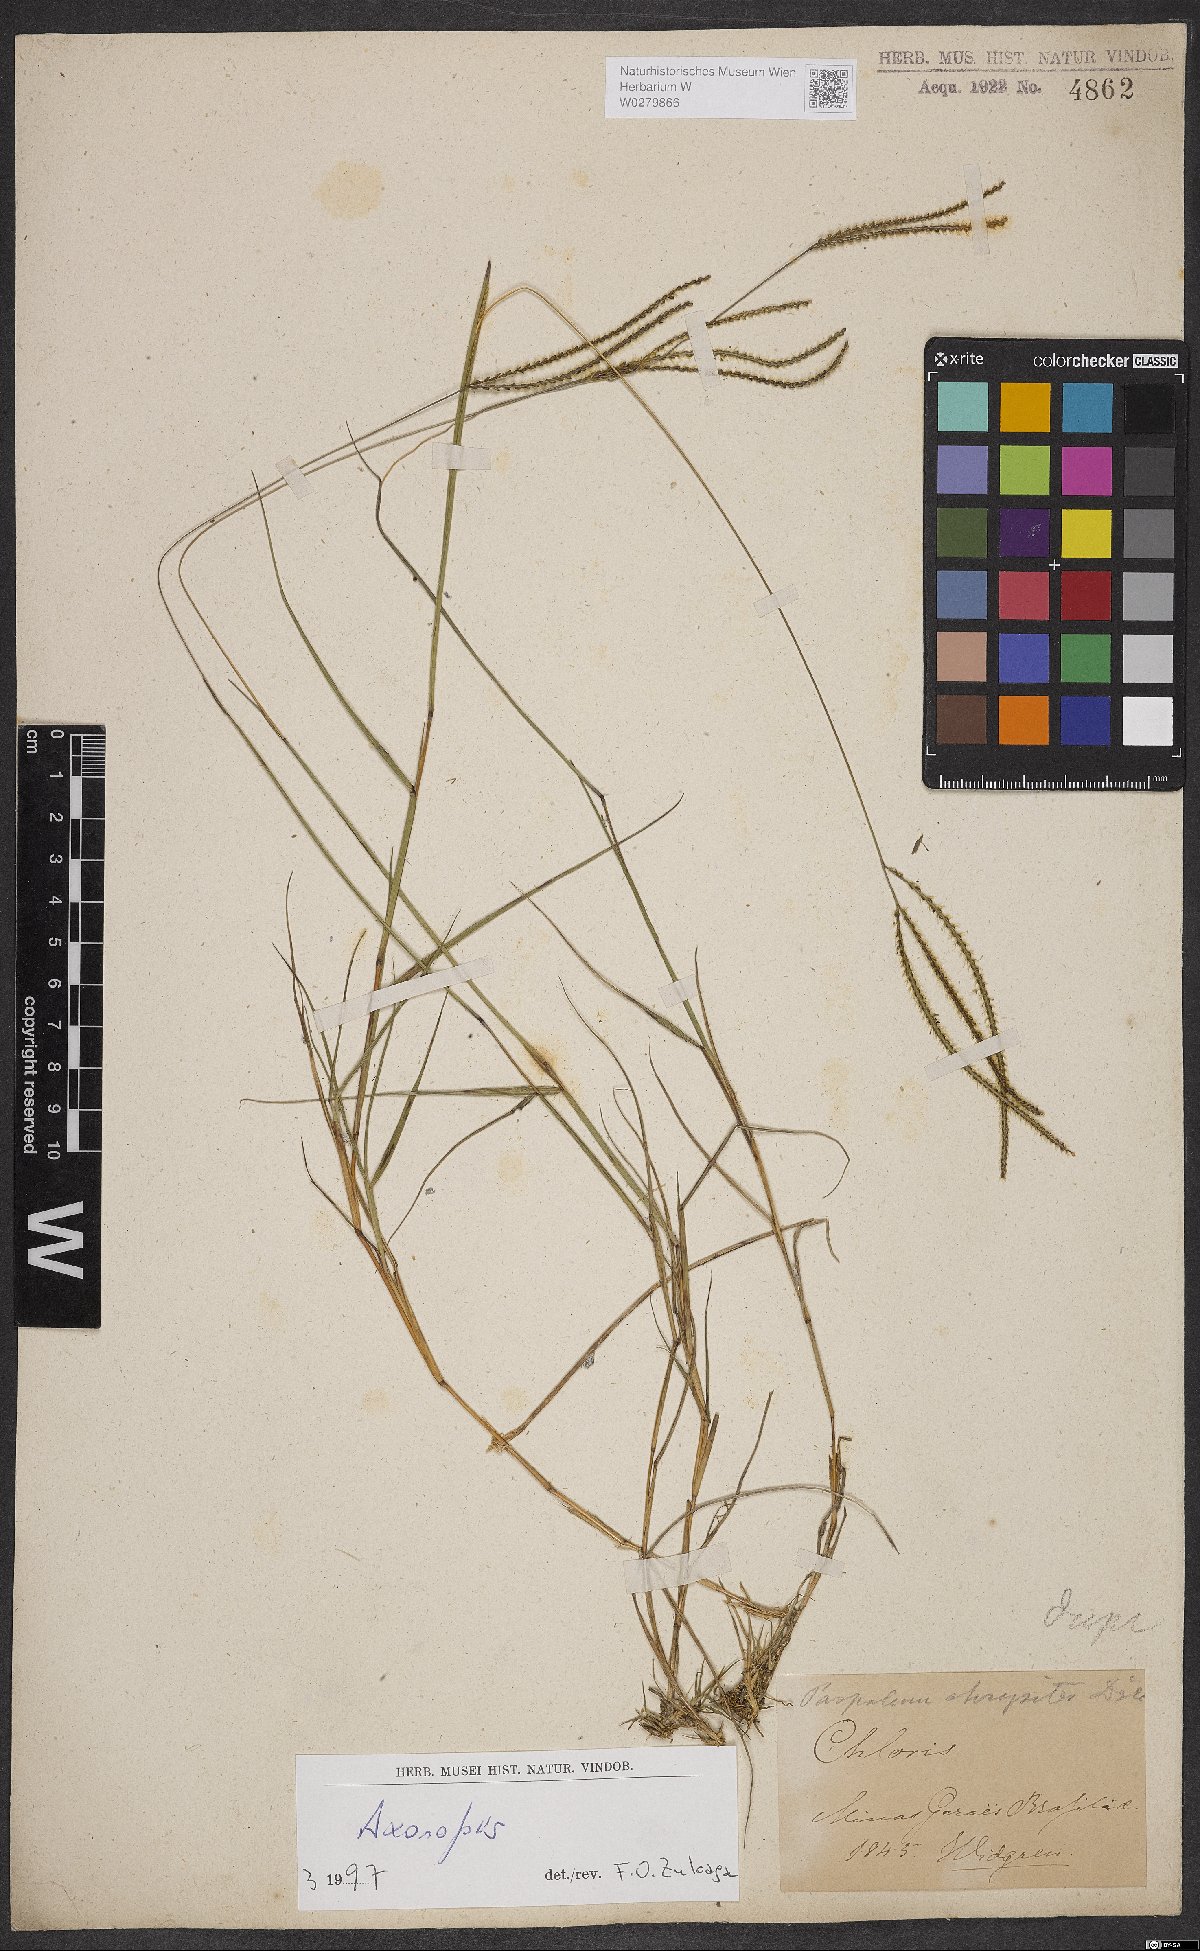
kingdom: Plantae
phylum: Tracheophyta
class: Liliopsida
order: Poales
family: Poaceae
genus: Axonopus
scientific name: Axonopus aureus
